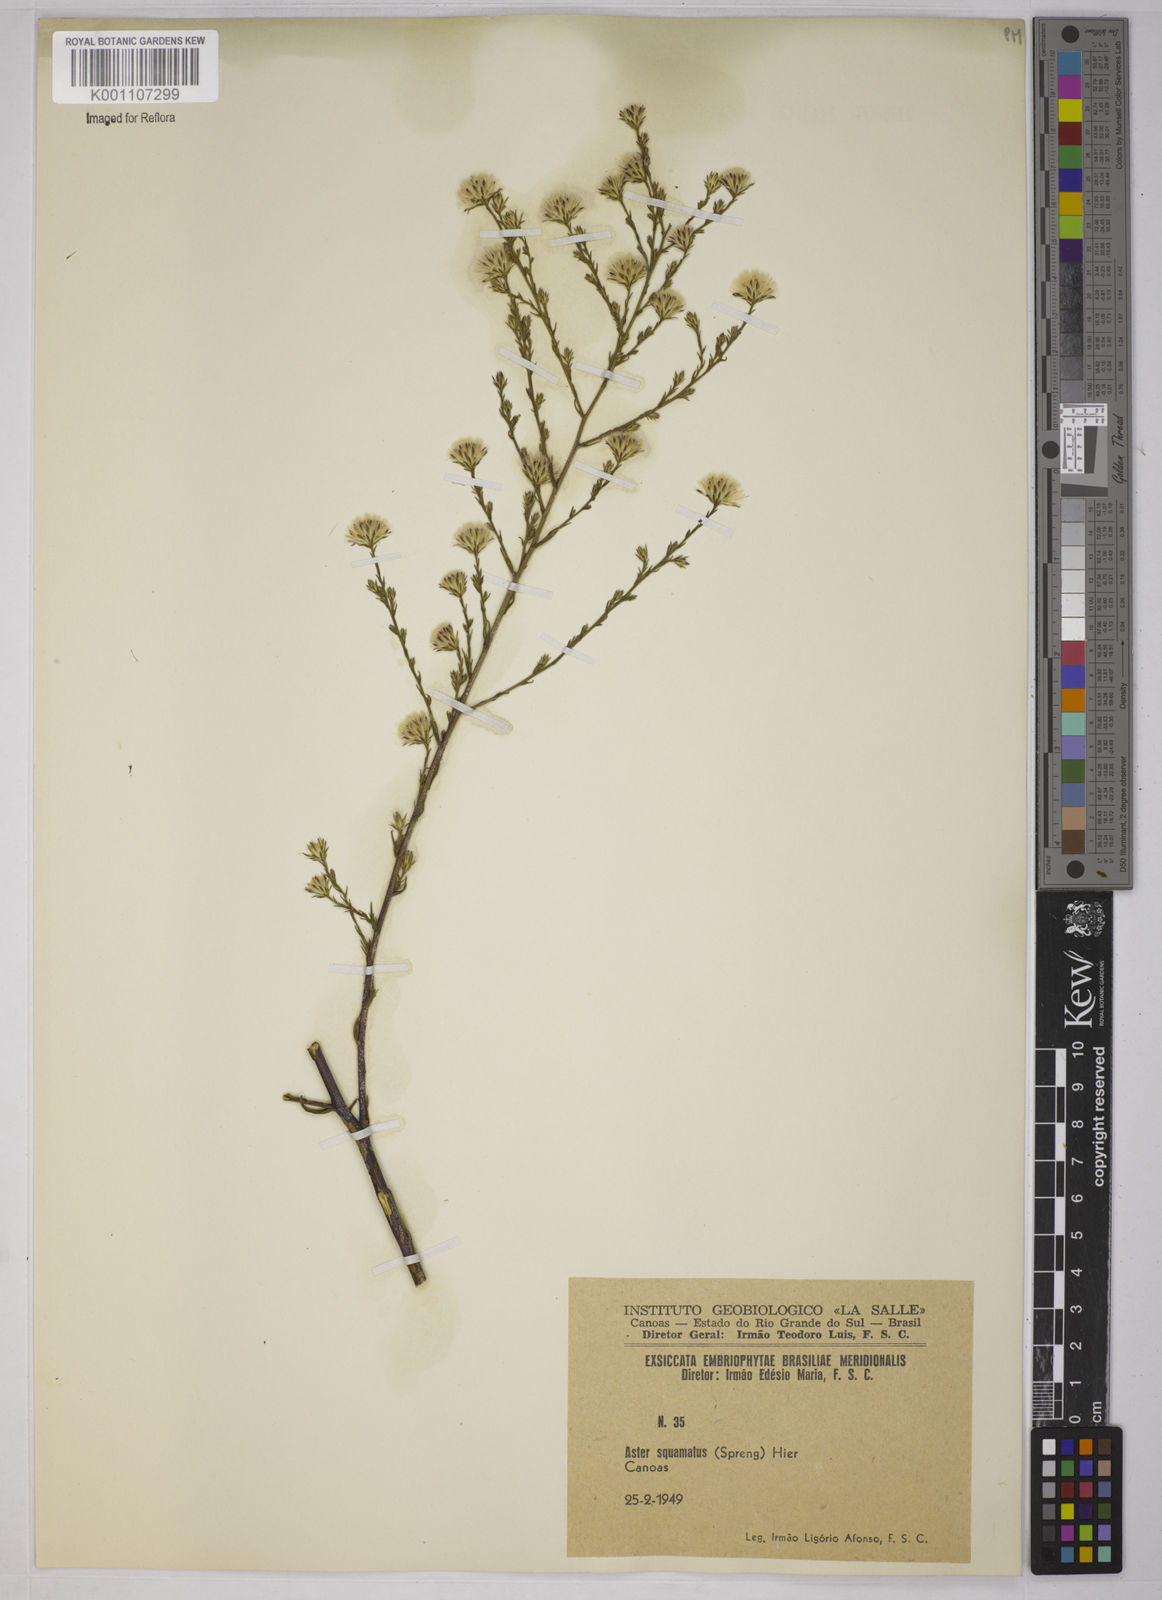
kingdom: Plantae
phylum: Tracheophyta
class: Magnoliopsida
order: Asterales
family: Asteraceae
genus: Symphyotrichum
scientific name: Symphyotrichum
